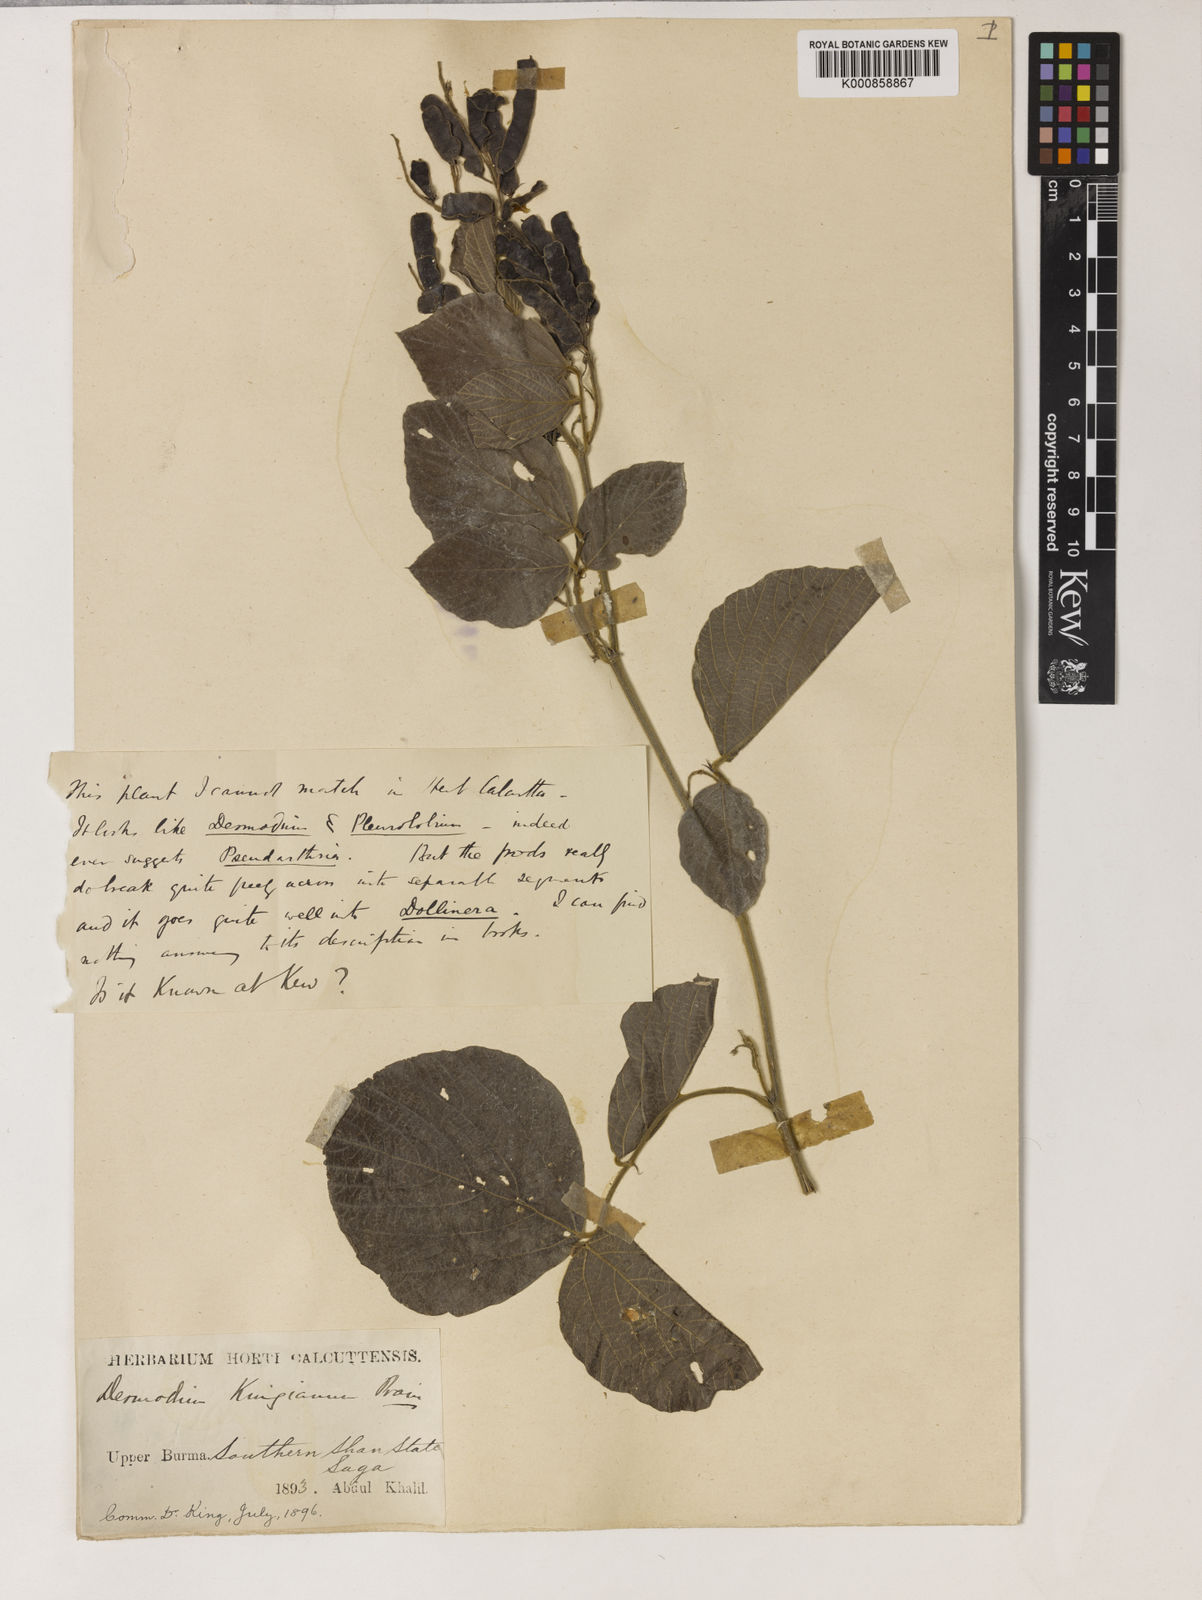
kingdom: Plantae
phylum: Tracheophyta
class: Magnoliopsida
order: Fabales
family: Fabaceae
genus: Daprainia
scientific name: Daprainia kingiana
